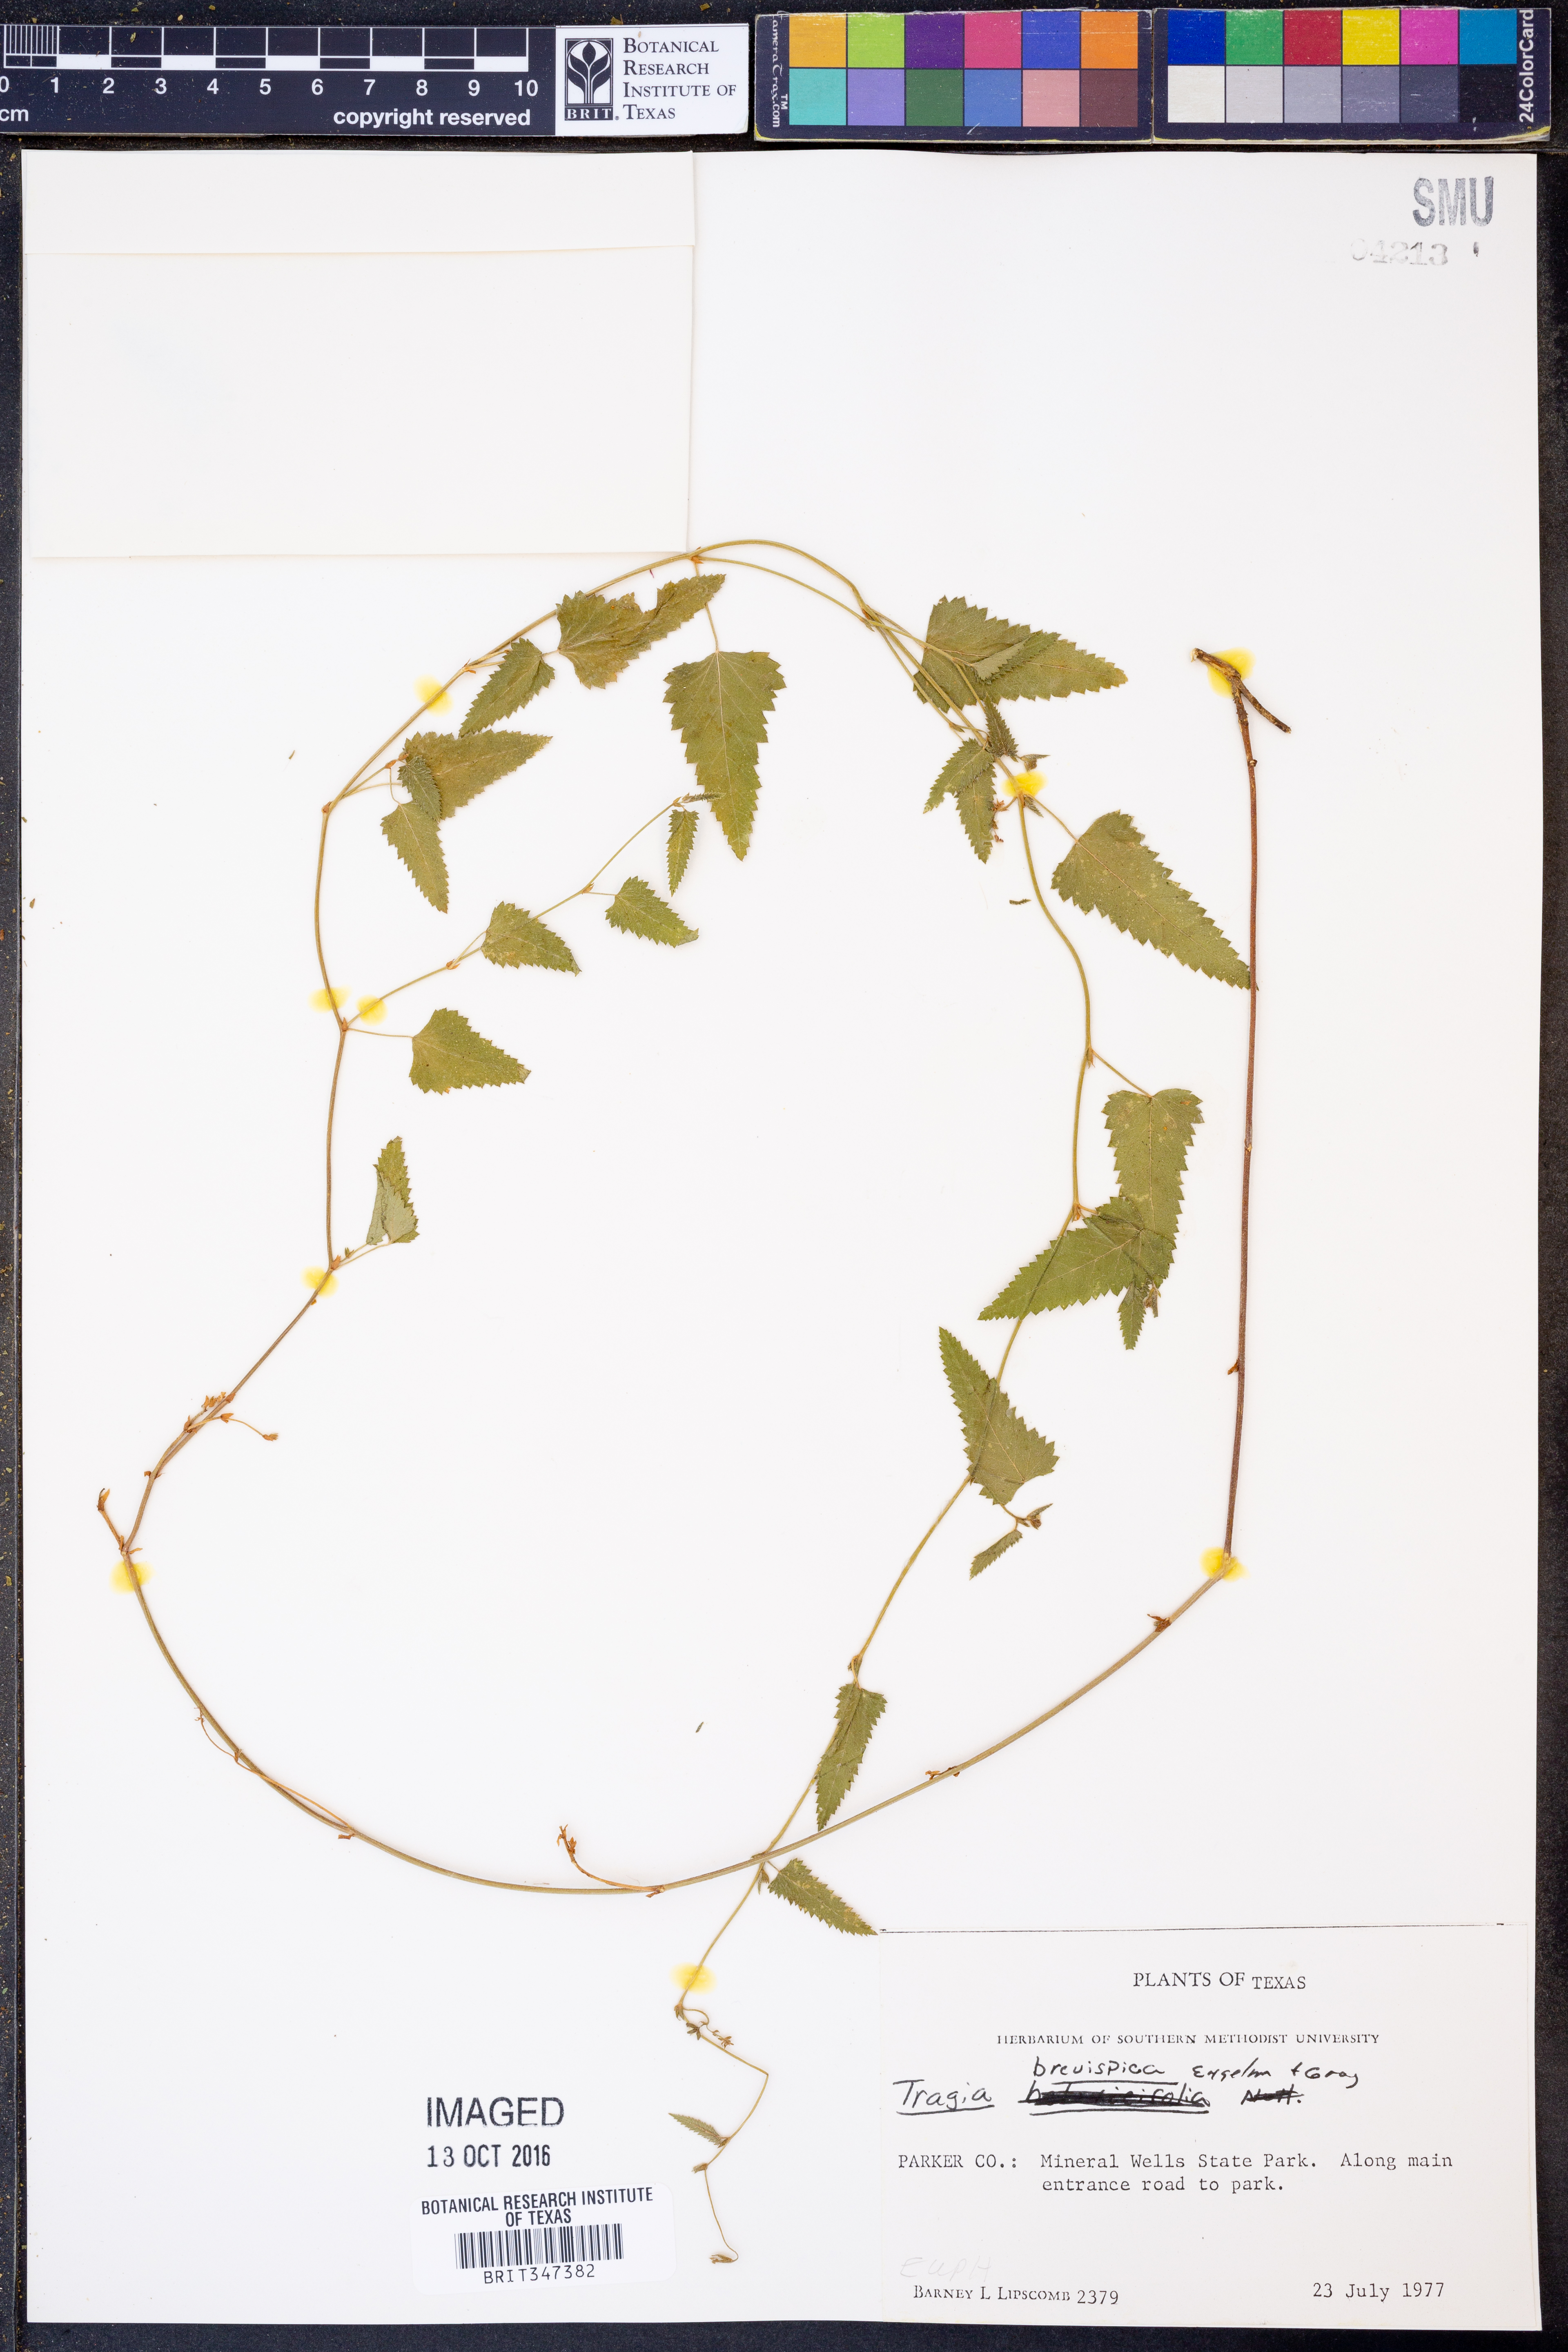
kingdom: Plantae
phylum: Tracheophyta
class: Magnoliopsida
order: Malpighiales
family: Euphorbiaceae
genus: Tragia
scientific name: Tragia brevispica
